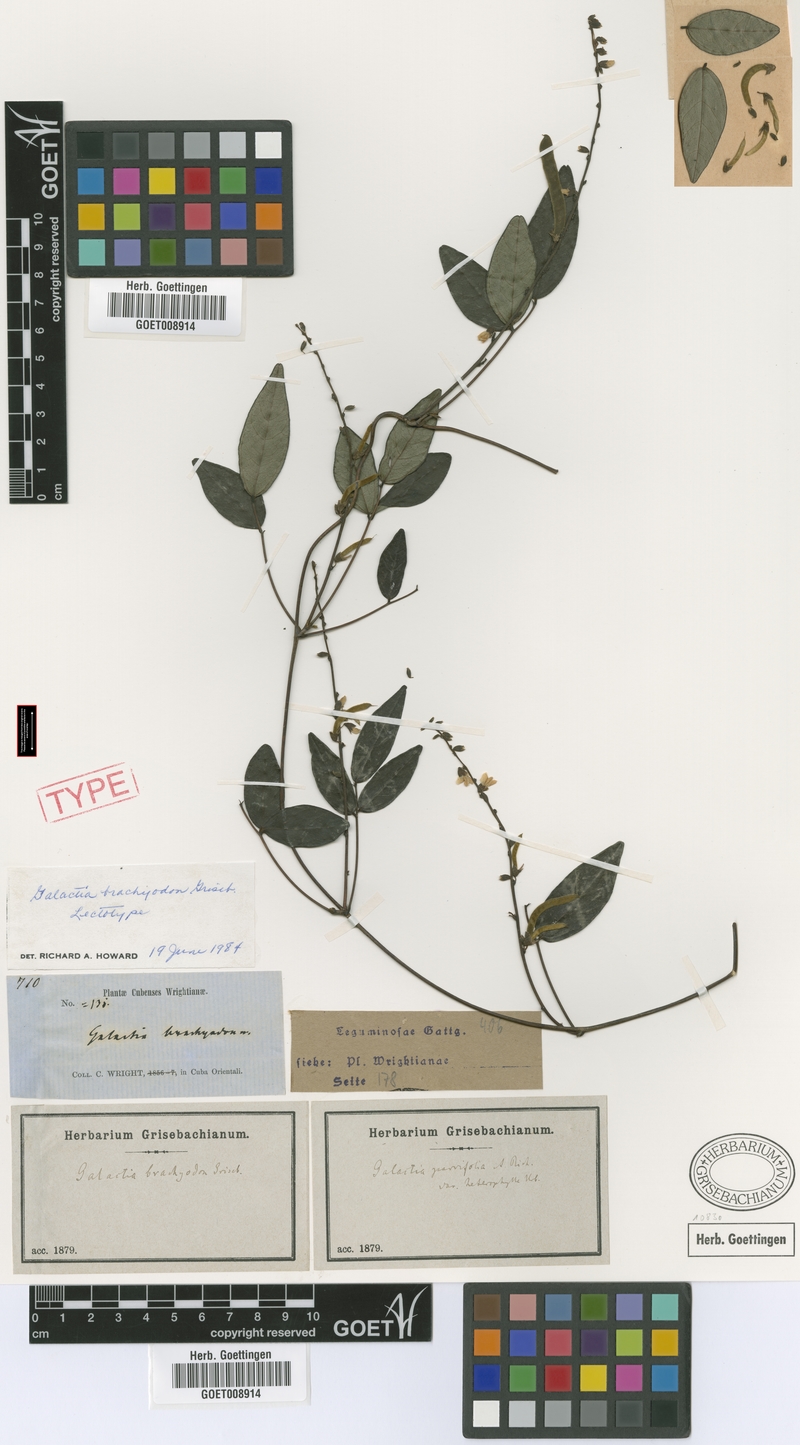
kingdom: Plantae
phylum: Tracheophyta
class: Magnoliopsida
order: Fabales
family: Fabaceae
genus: Galactia
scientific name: Galactia brachyodon
